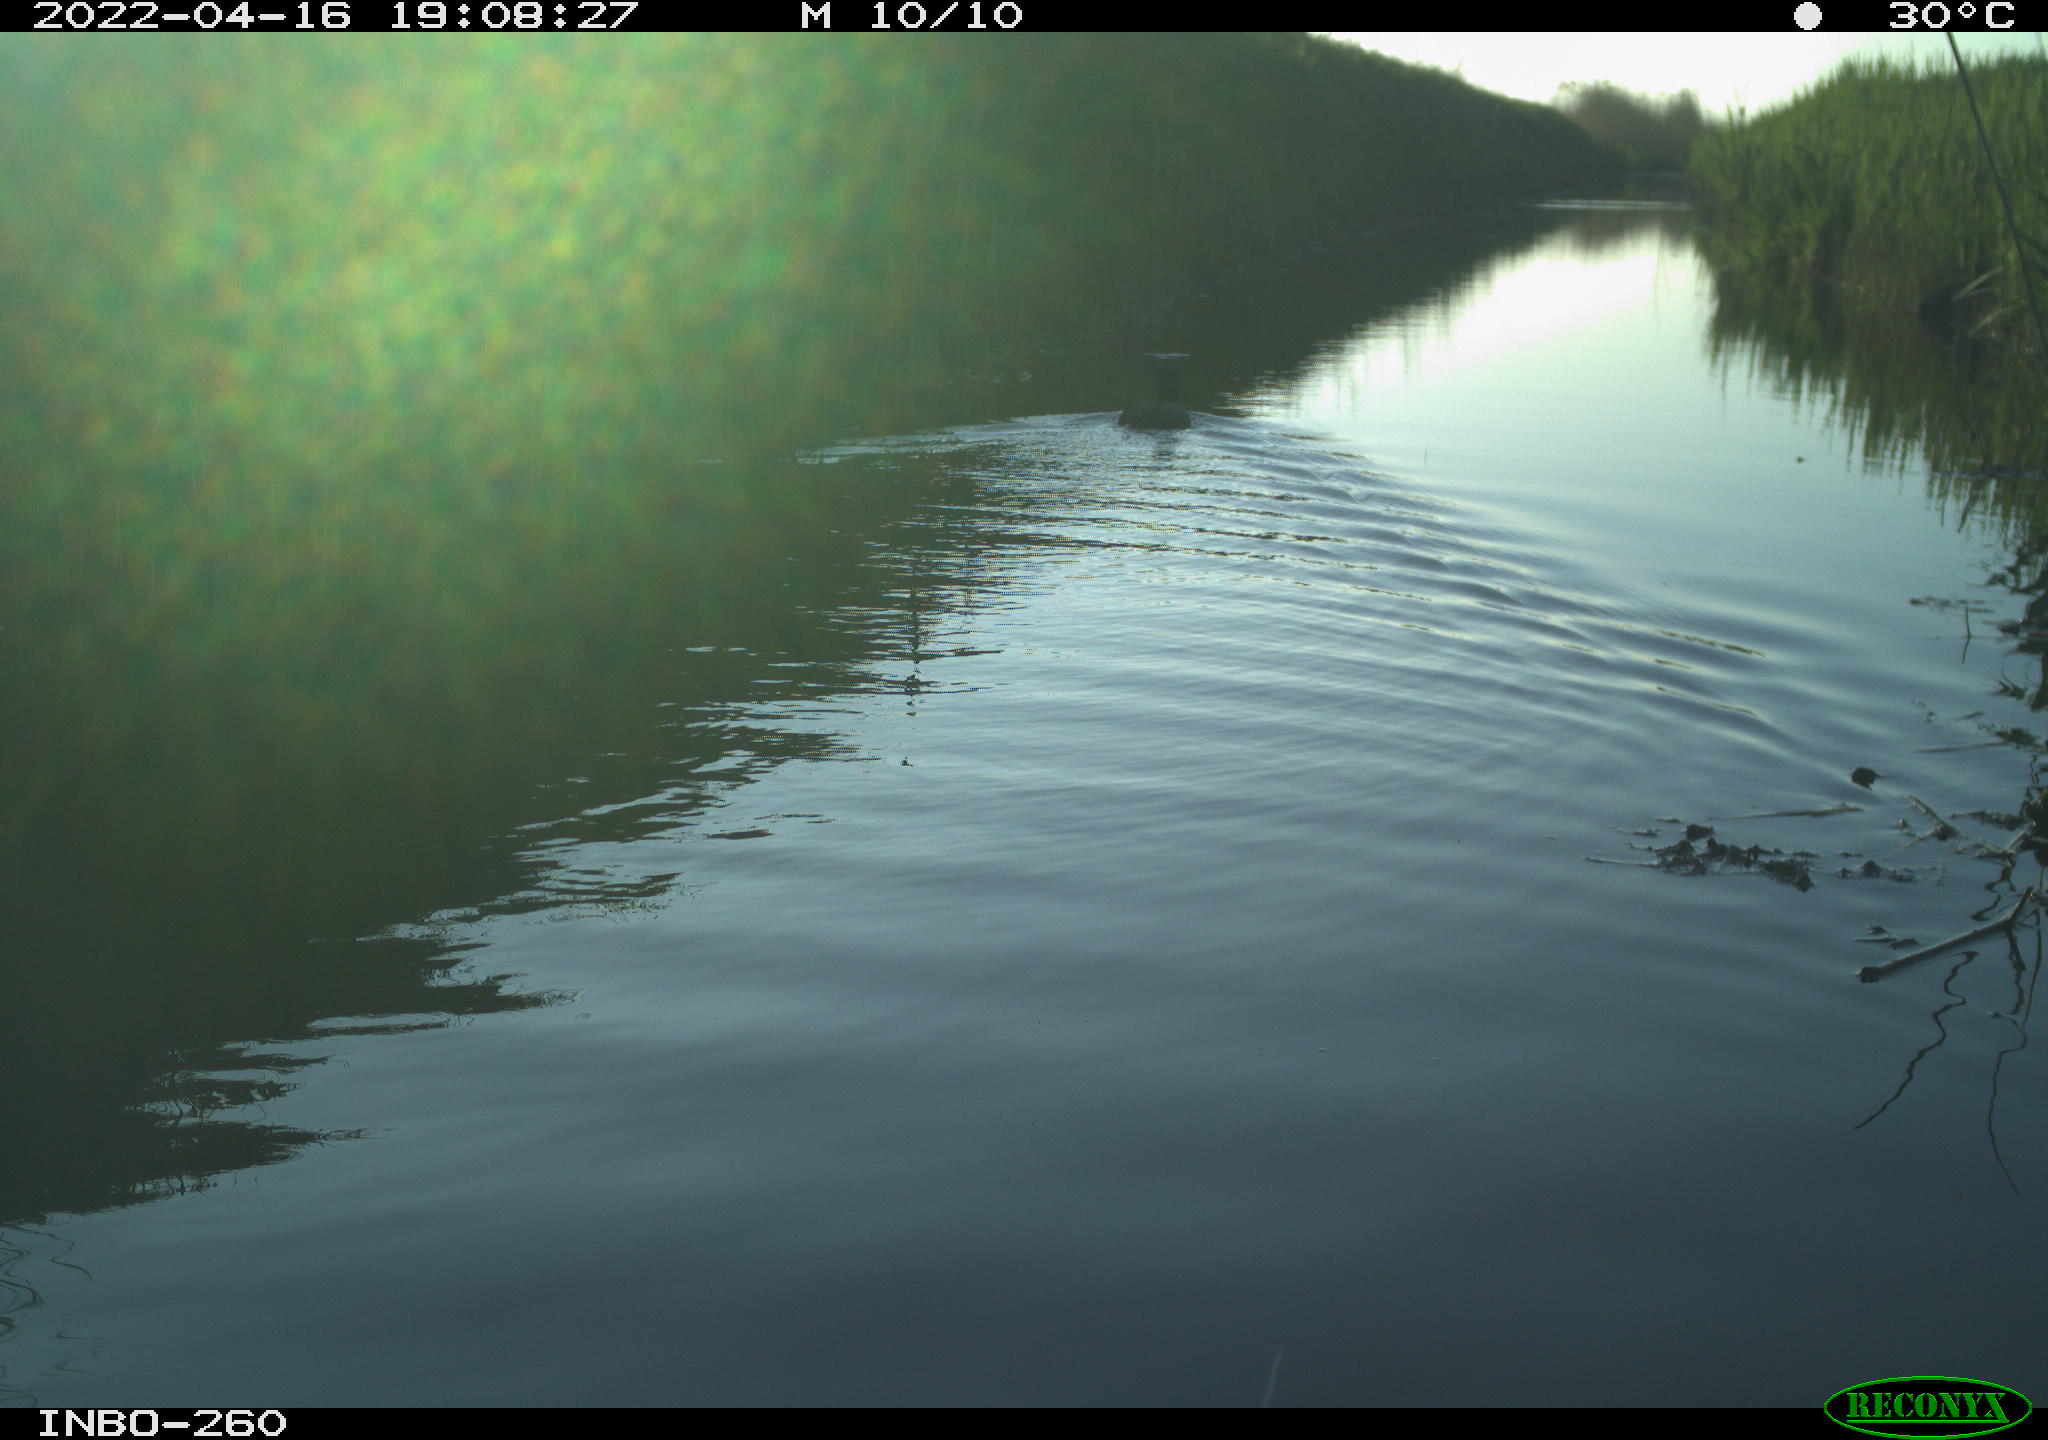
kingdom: Animalia
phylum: Chordata
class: Aves
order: Gruiformes
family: Rallidae
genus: Fulica
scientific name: Fulica atra
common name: Eurasian coot
